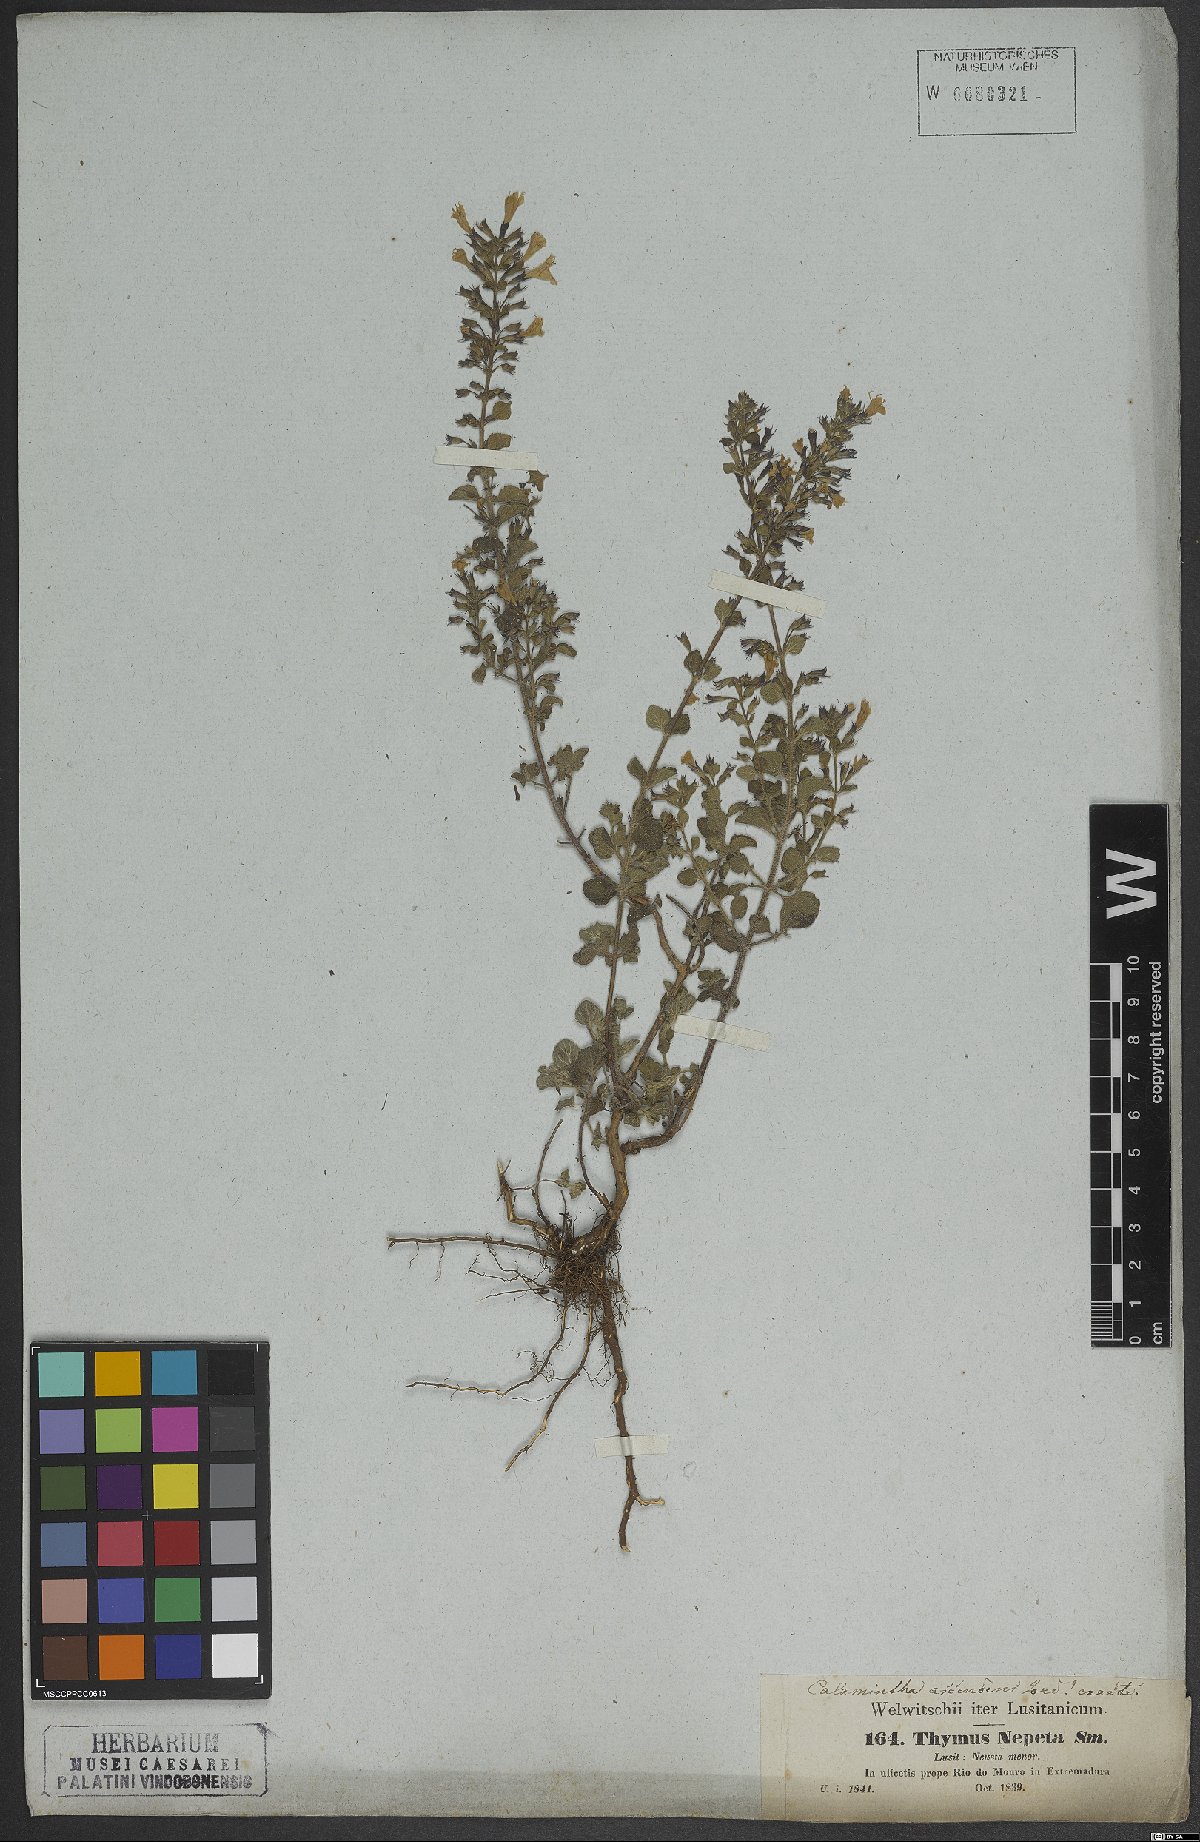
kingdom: Plantae
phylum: Tracheophyta
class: Magnoliopsida
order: Lamiales
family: Lamiaceae
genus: Clinopodium
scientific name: Clinopodium heterotrichum
